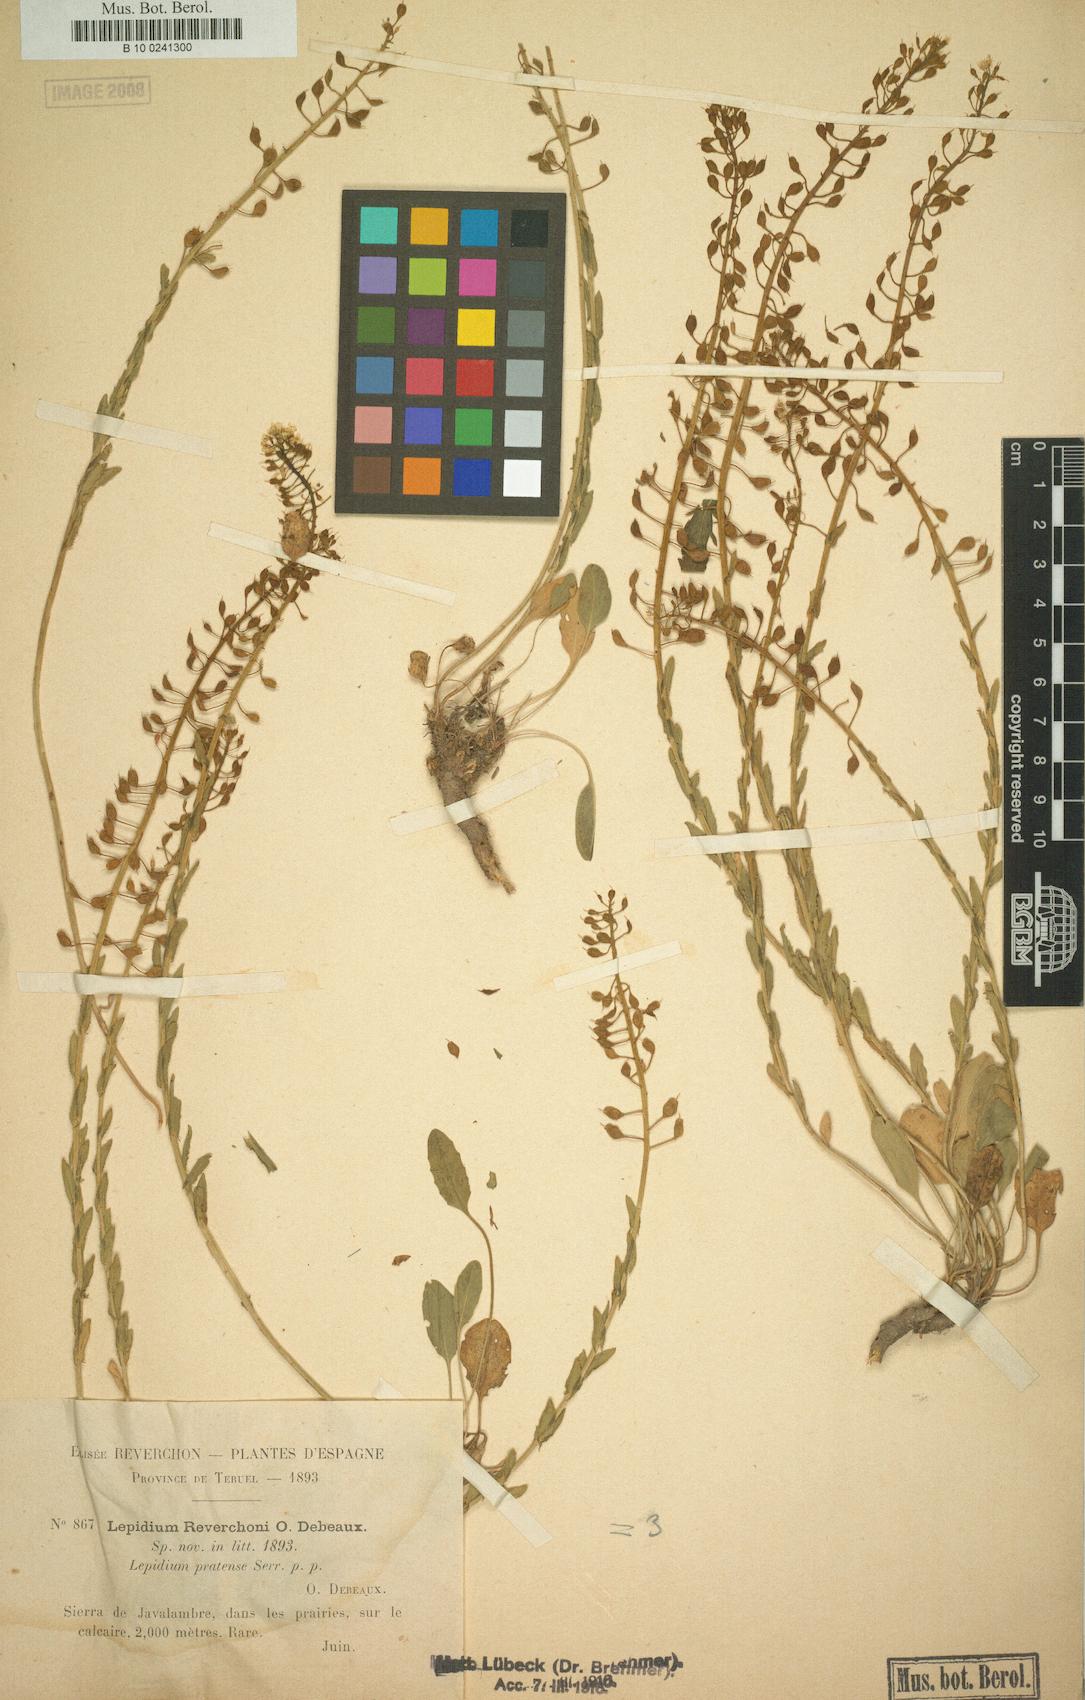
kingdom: Plantae
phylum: Tracheophyta
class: Magnoliopsida
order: Brassicales
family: Brassicaceae
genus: Lepidium
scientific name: Lepidium villarsii
